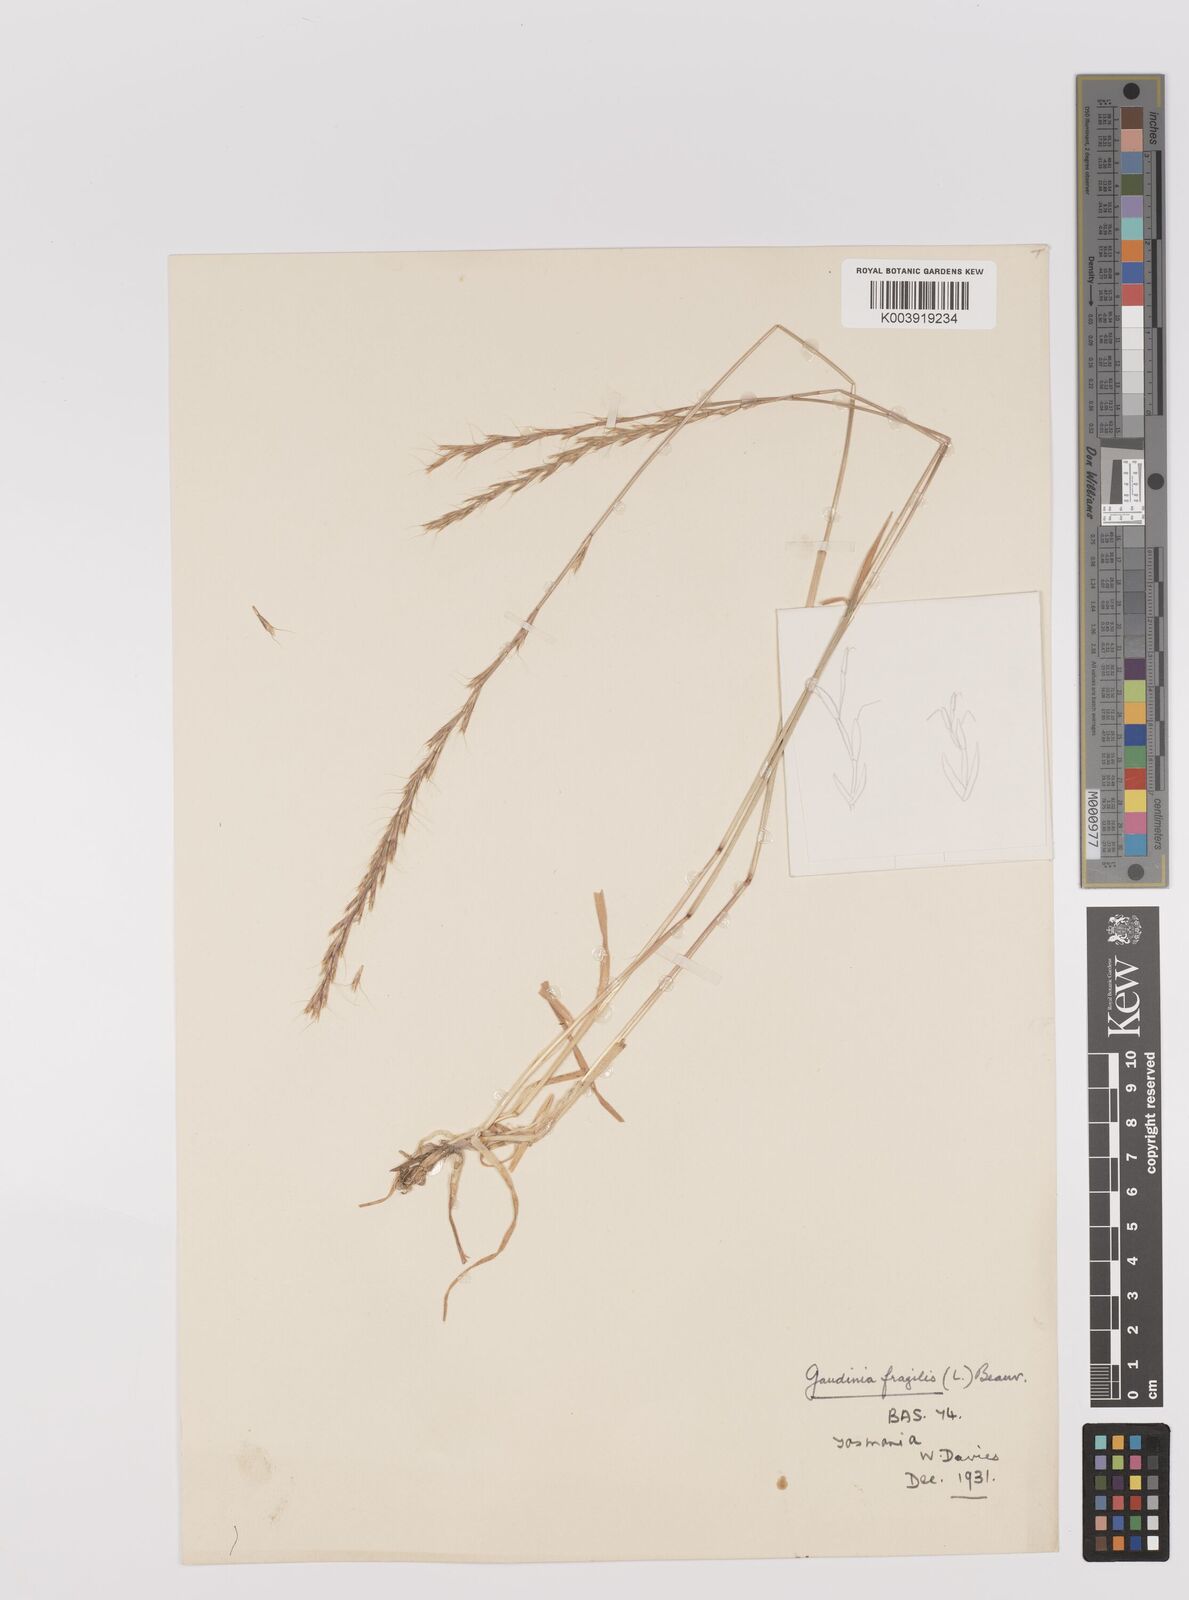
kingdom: Plantae
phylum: Tracheophyta
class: Liliopsida
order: Poales
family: Poaceae
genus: Gaudinia
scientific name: Gaudinia fragilis
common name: French oat-grass
